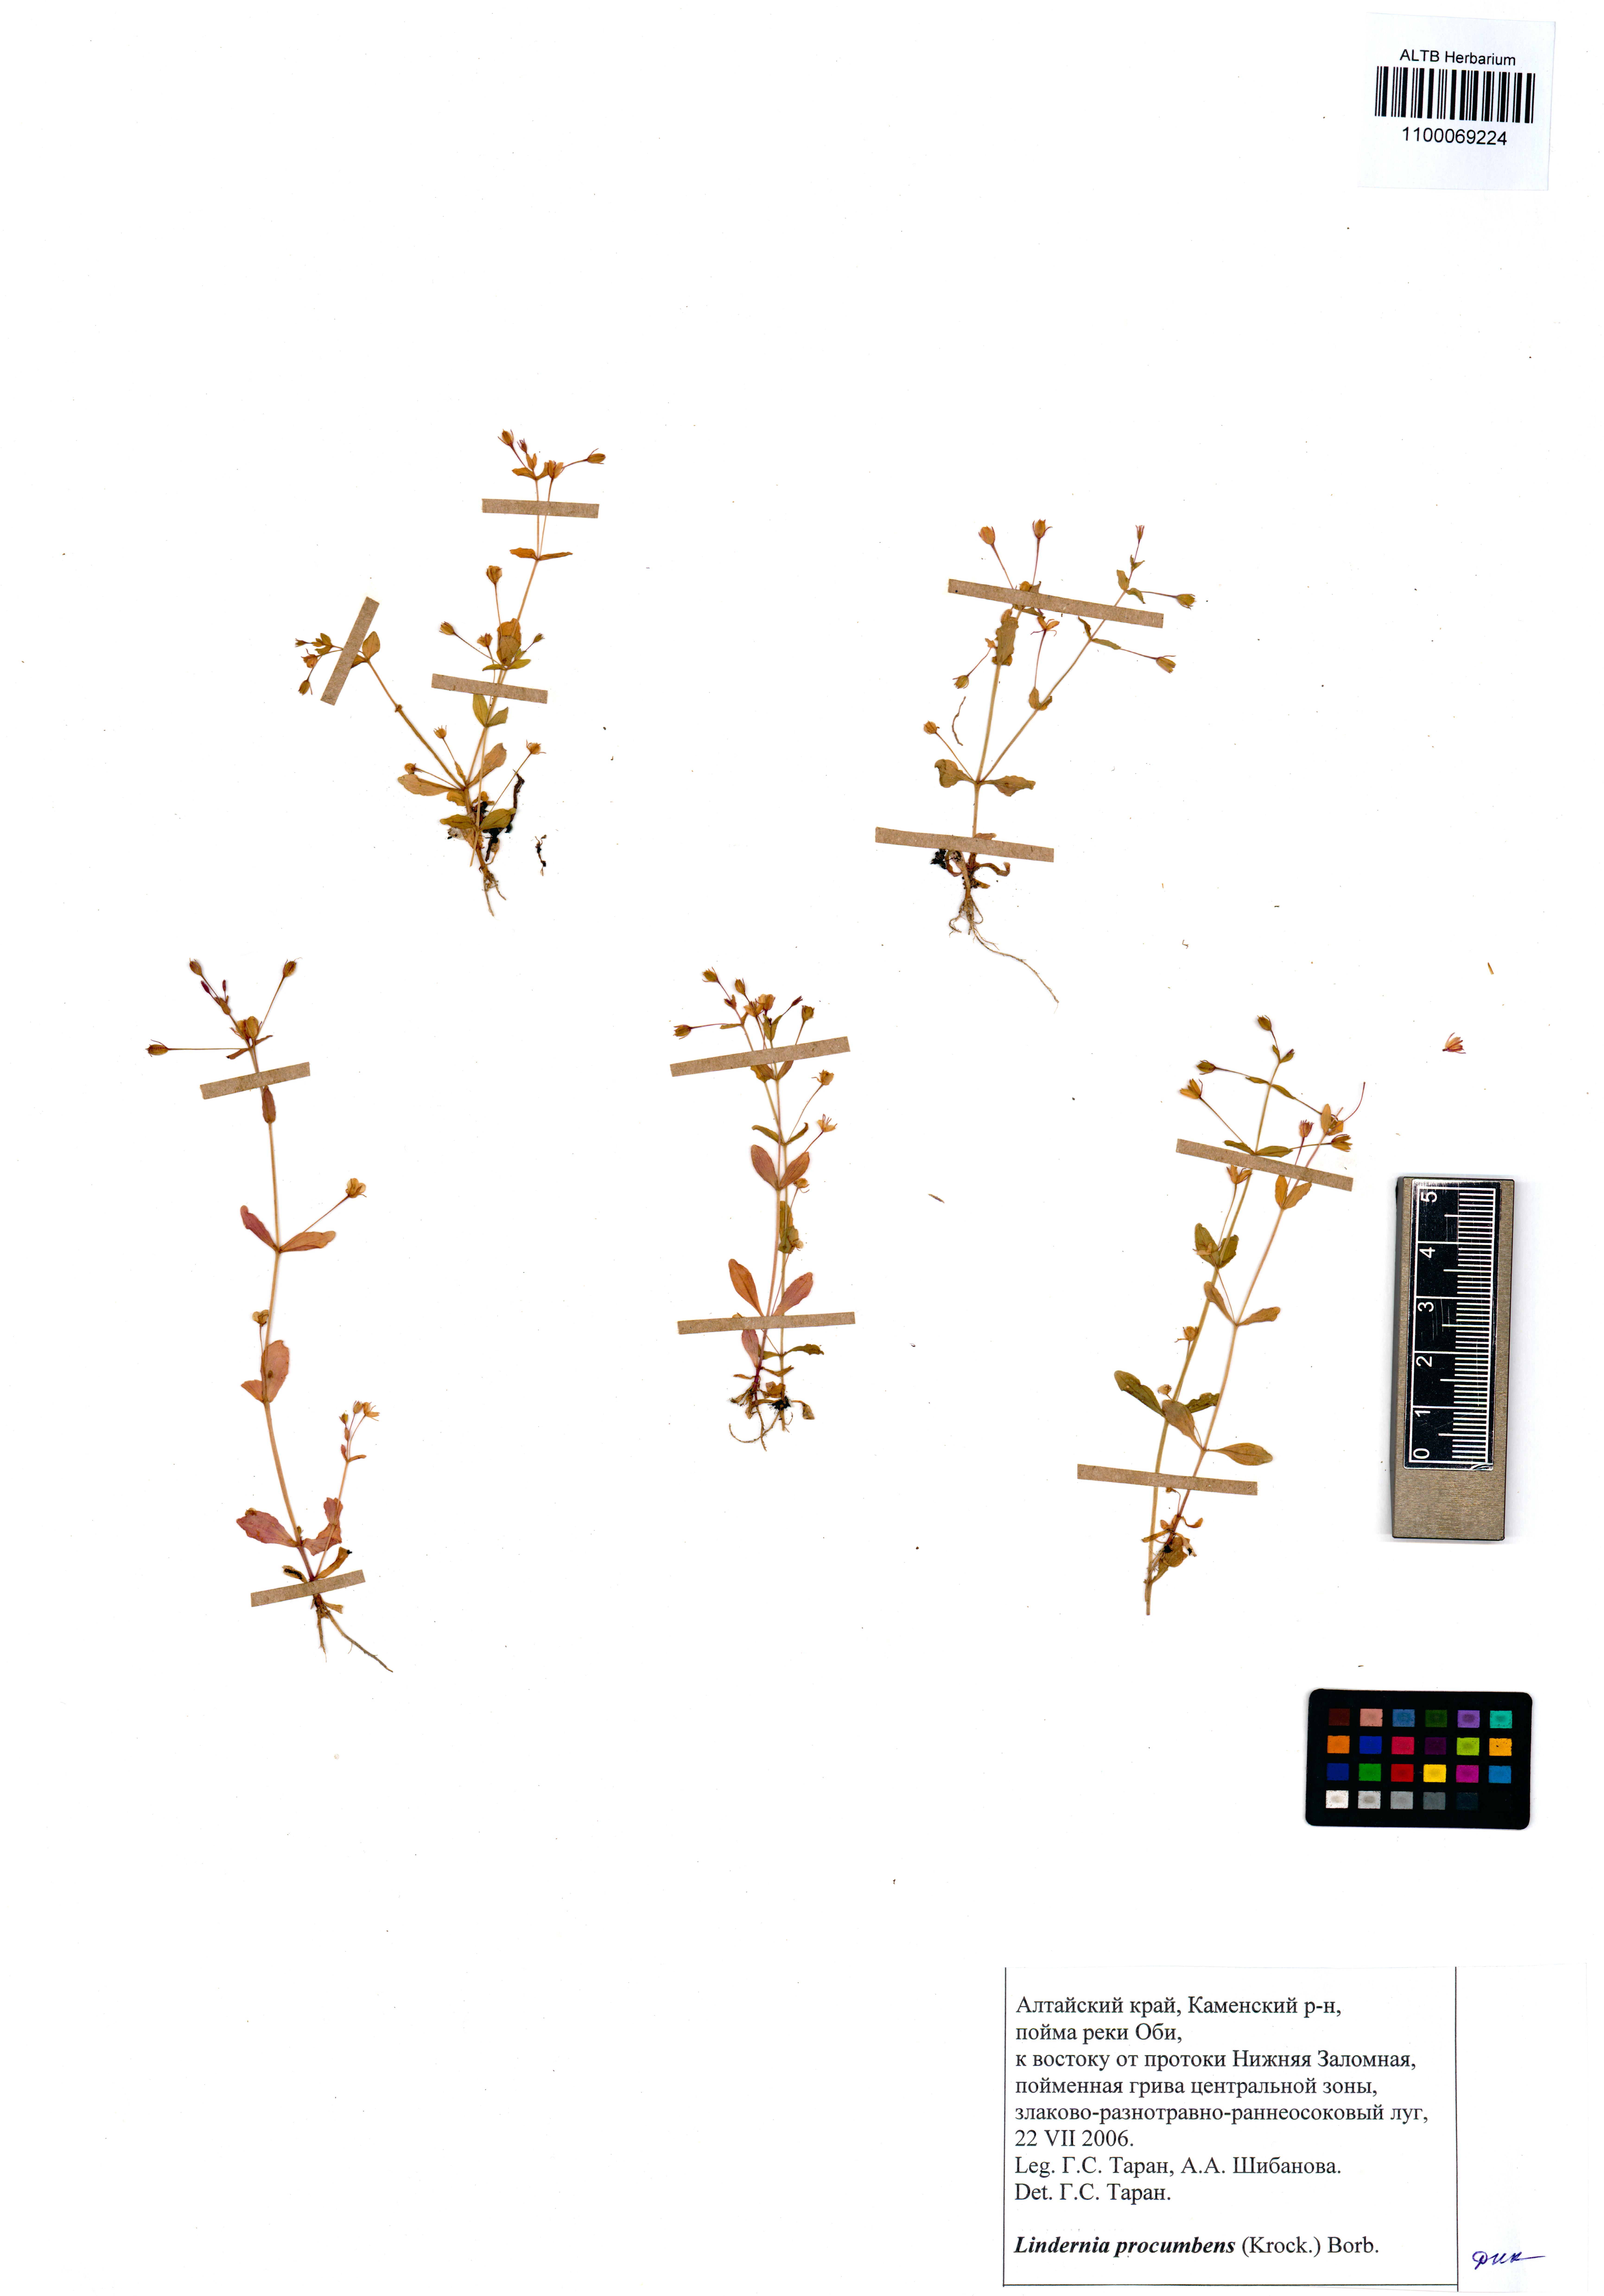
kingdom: Plantae
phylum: Tracheophyta
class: Magnoliopsida
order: Lamiales
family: Linderniaceae
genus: Lindernia
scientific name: Lindernia procumbens
